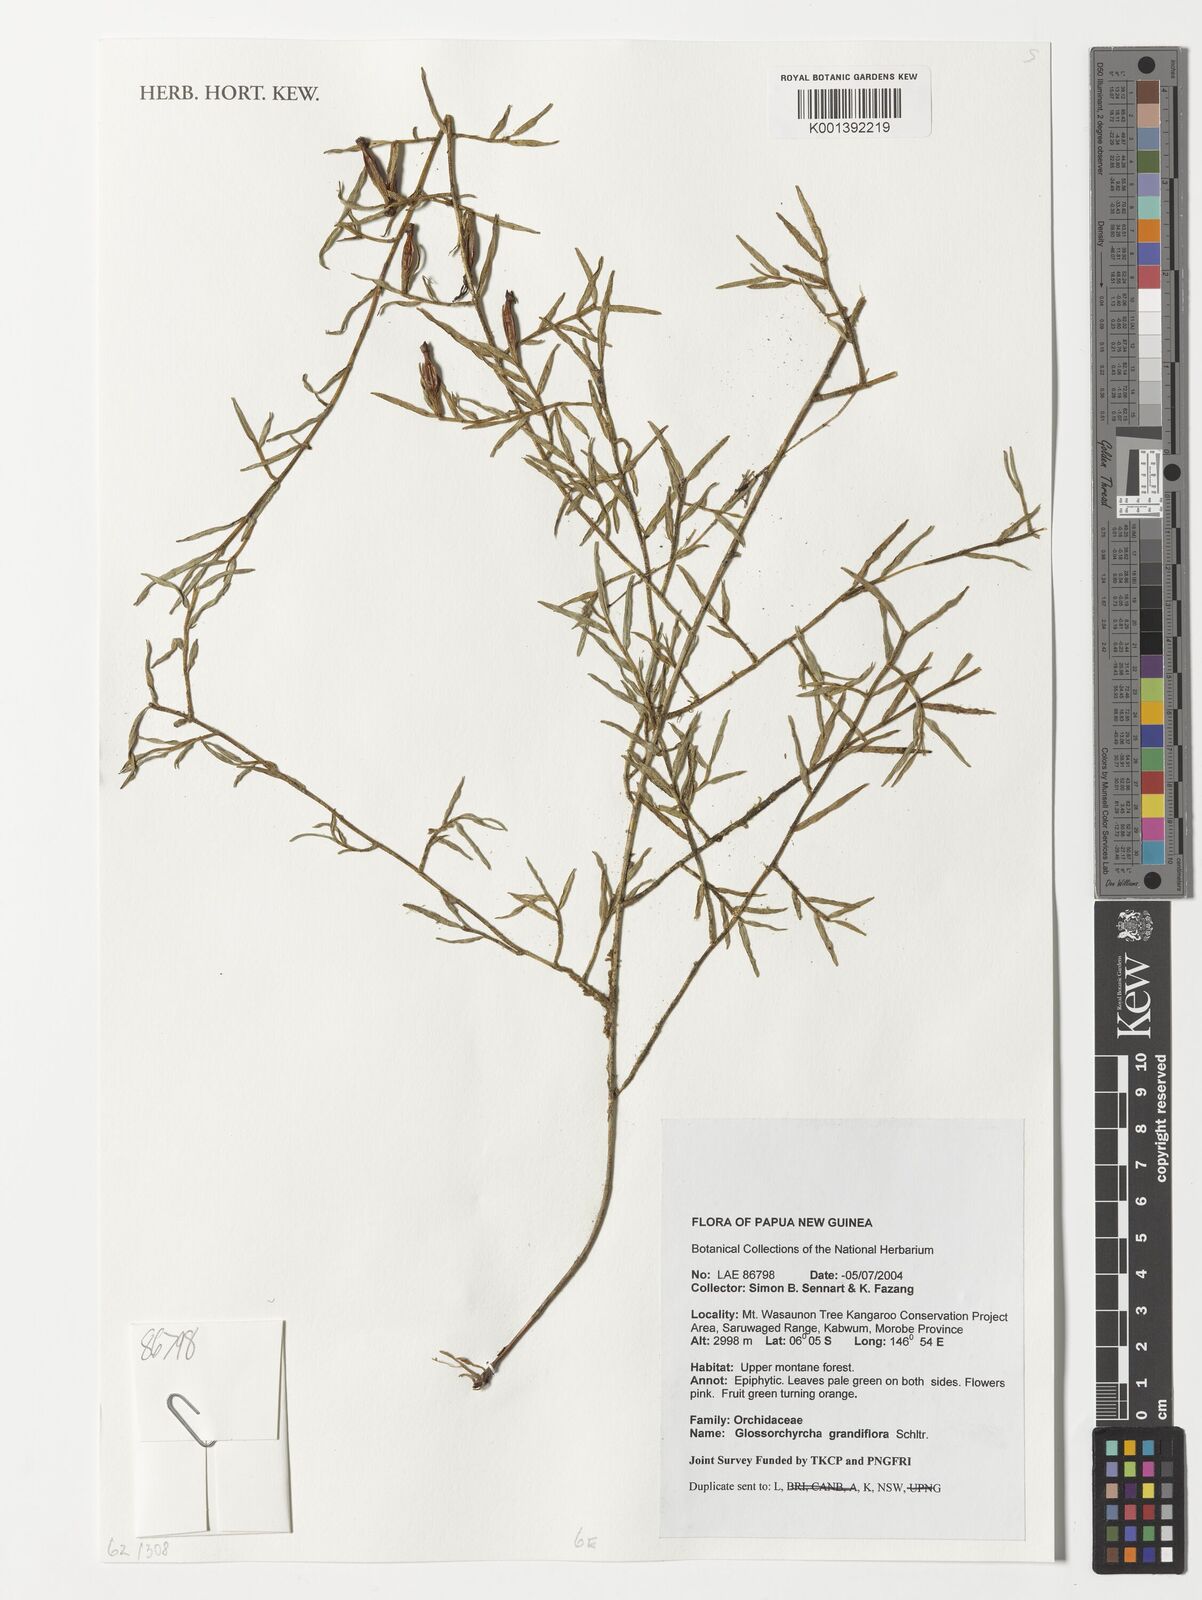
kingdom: Plantae
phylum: Tracheophyta
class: Liliopsida
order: Asparagales
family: Orchidaceae
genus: Glomera
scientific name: Glomera grandilabella
